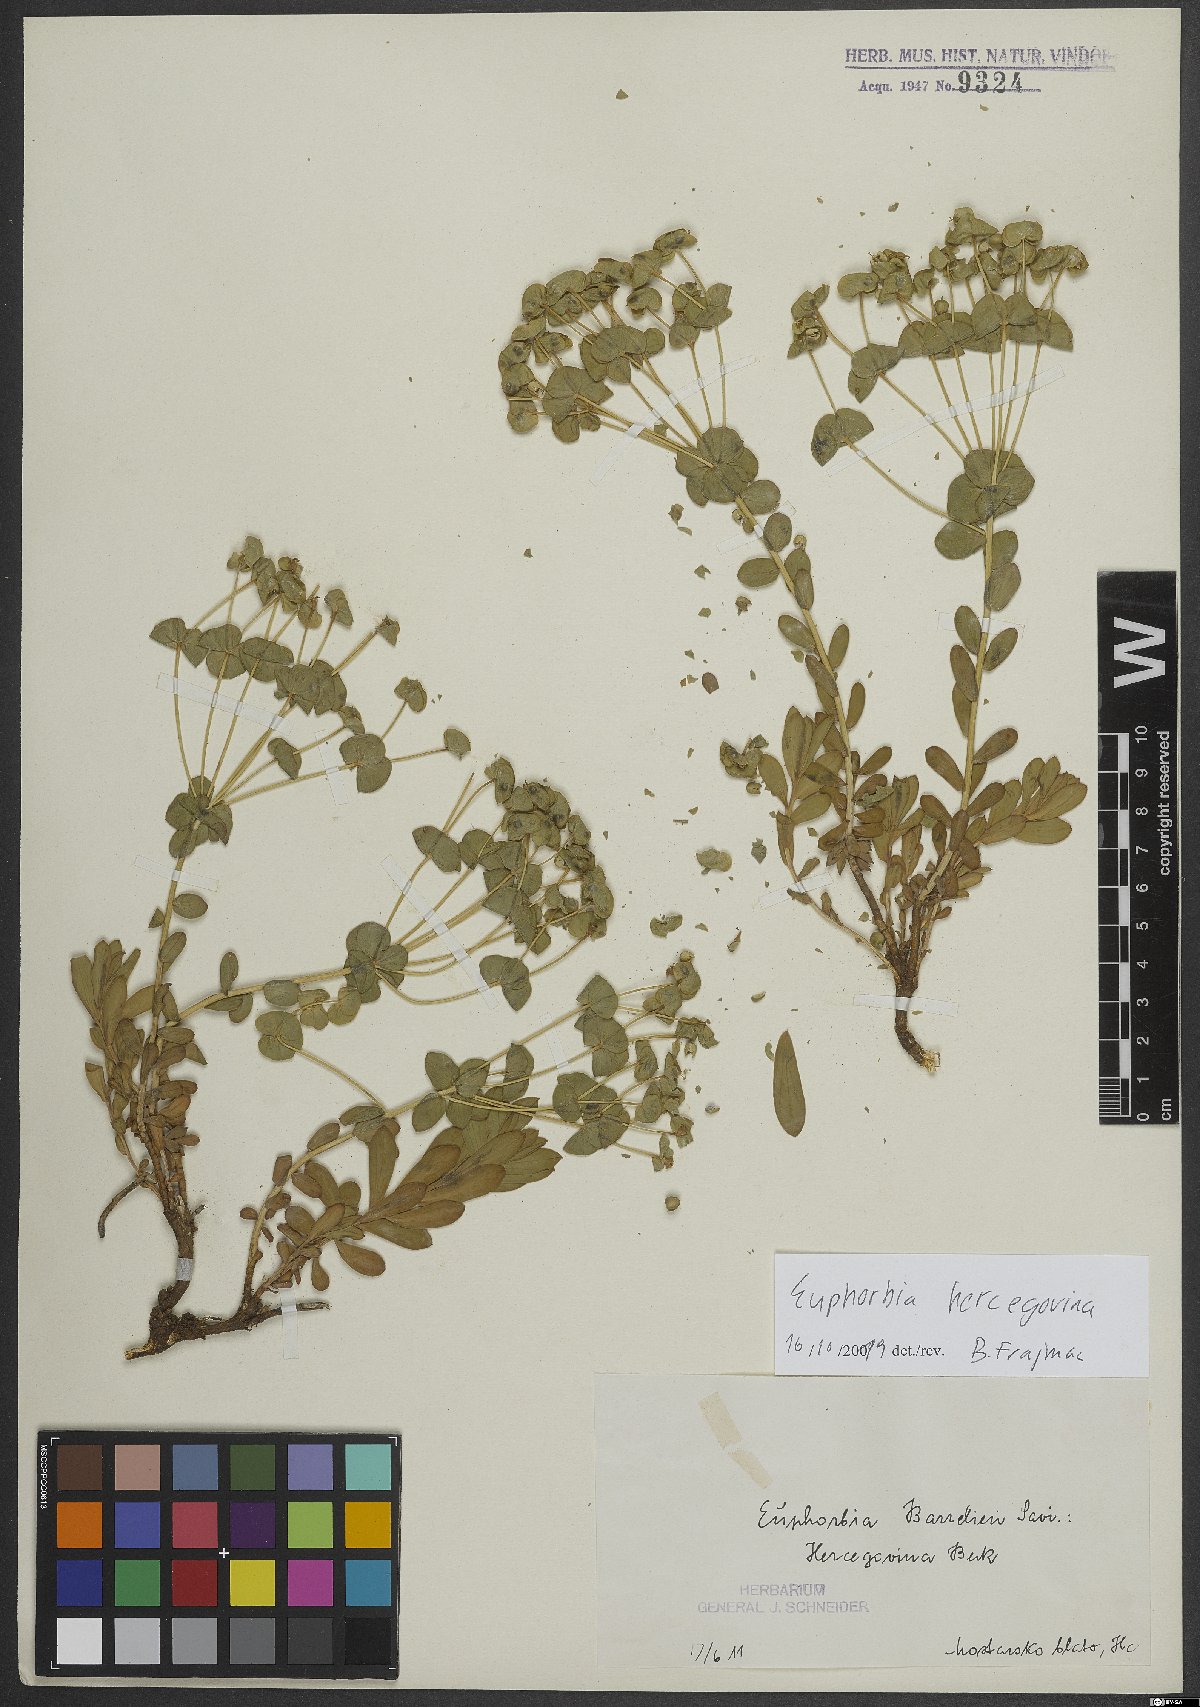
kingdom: Plantae
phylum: Tracheophyta
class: Magnoliopsida
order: Malpighiales
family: Euphorbiaceae
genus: Euphorbia
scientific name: Euphorbia barrelieri
